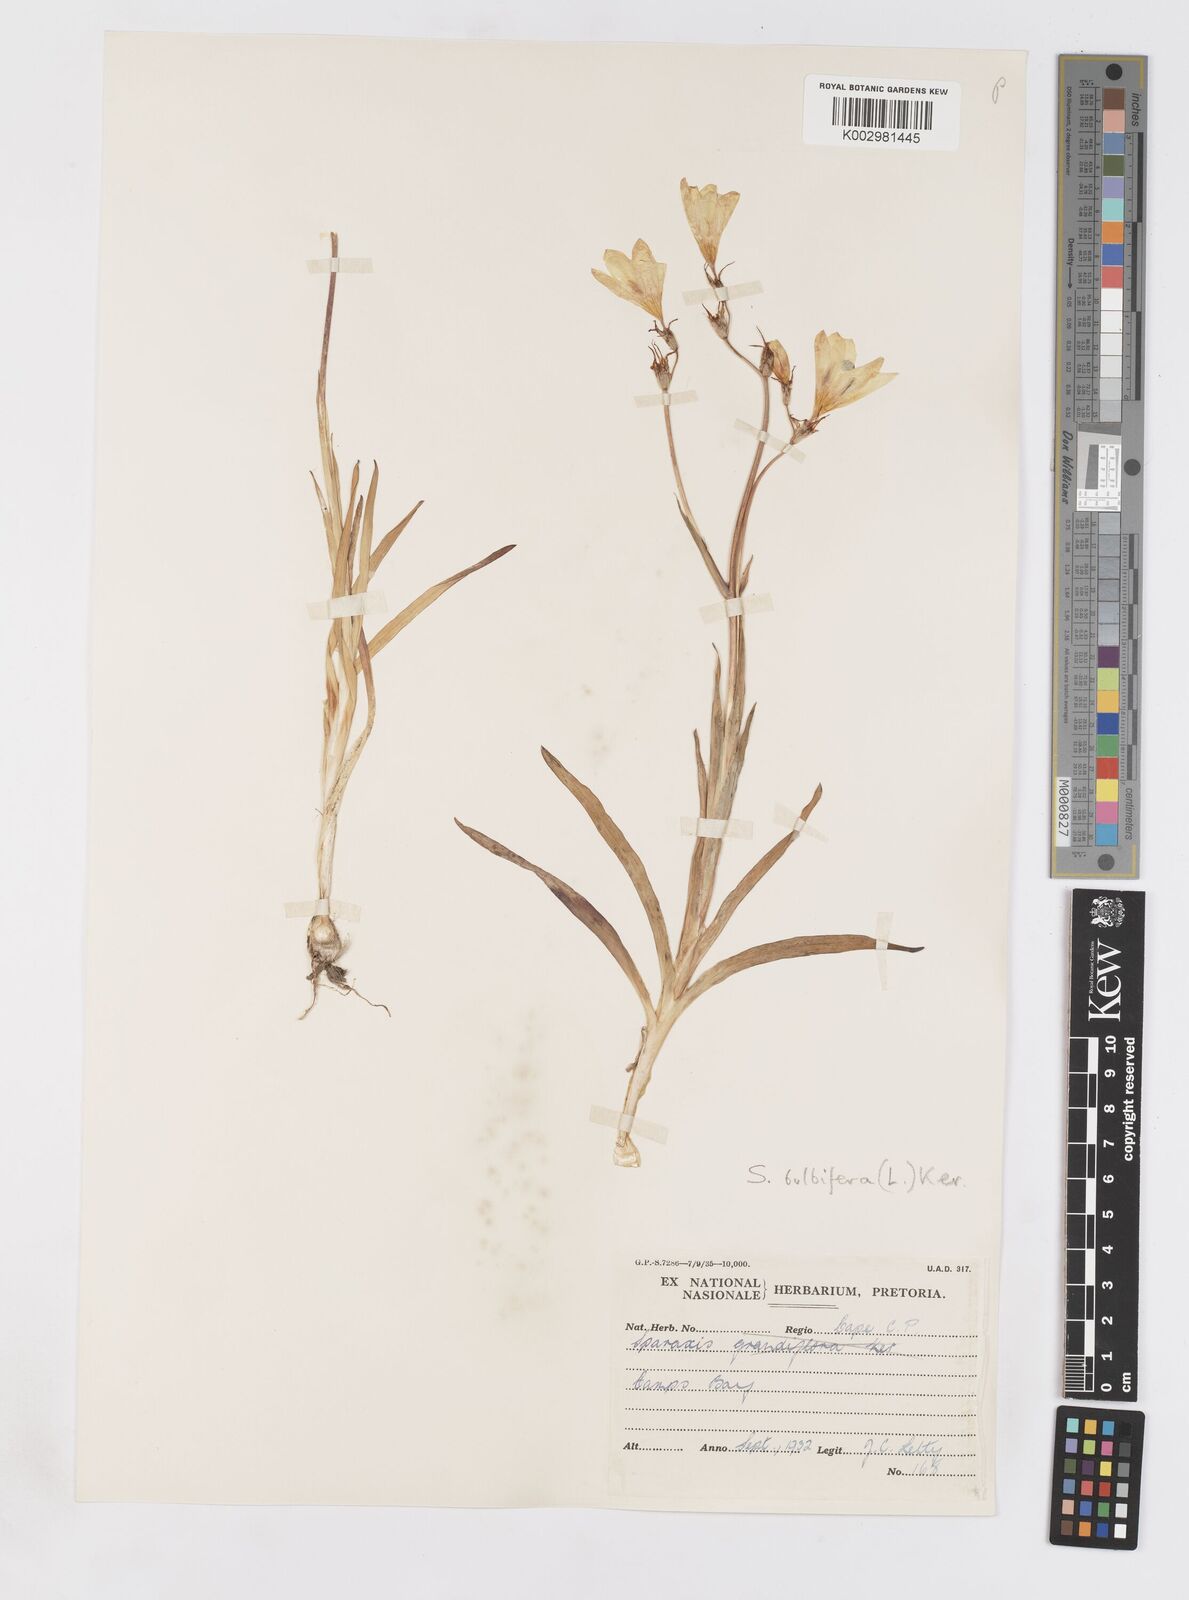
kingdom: Plantae
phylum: Tracheophyta
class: Liliopsida
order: Asparagales
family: Iridaceae
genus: Sparaxis
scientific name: Sparaxis bulbifera
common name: Harlequin-flower
